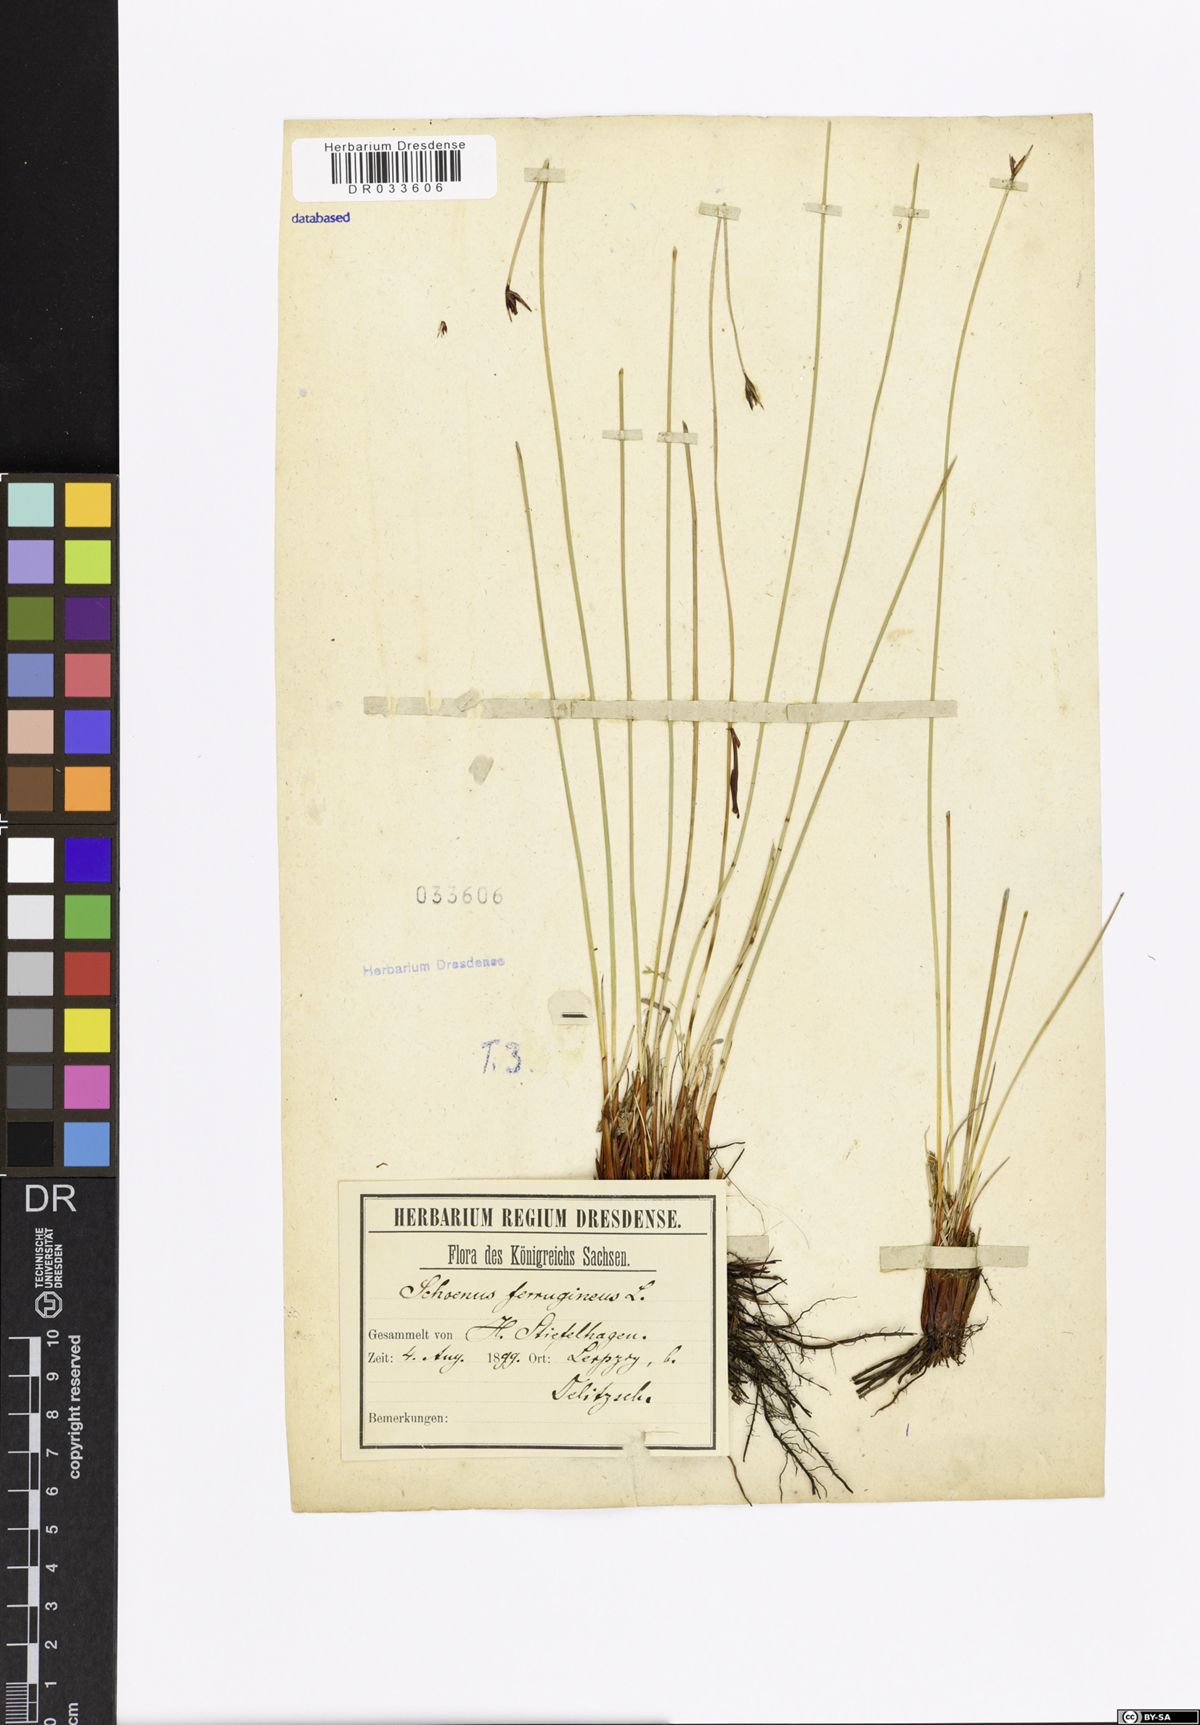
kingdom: Plantae
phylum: Tracheophyta
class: Liliopsida
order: Poales
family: Cyperaceae
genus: Schoenus
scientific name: Schoenus ferrugineus
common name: Brown bog-rush
